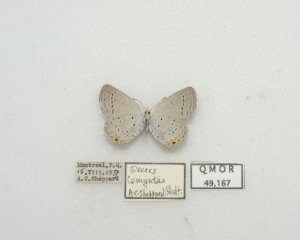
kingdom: Animalia
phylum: Arthropoda
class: Insecta
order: Lepidoptera
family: Lycaenidae
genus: Elkalyce
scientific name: Elkalyce comyntas
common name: Eastern Tailed-Blue
